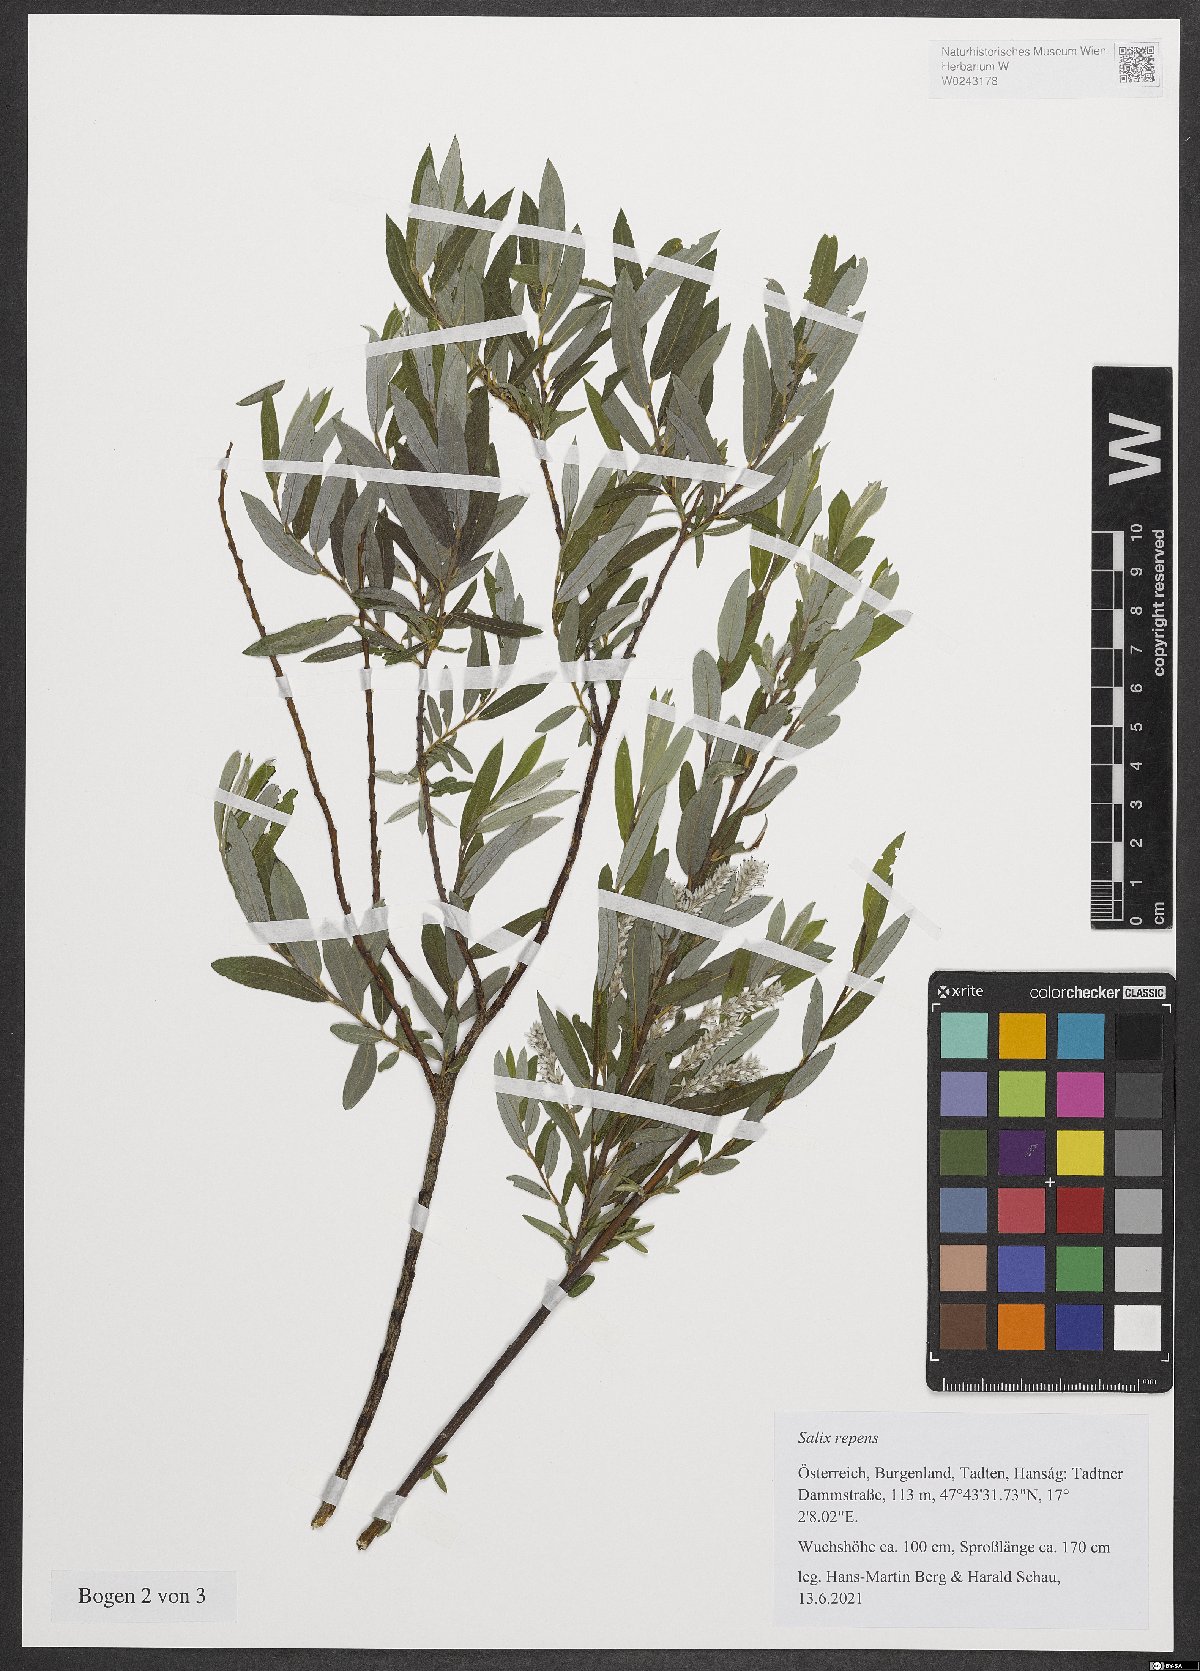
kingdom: Plantae
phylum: Tracheophyta
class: Magnoliopsida
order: Malpighiales
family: Salicaceae
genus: Salix
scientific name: Salix repens
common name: Creeping willow
